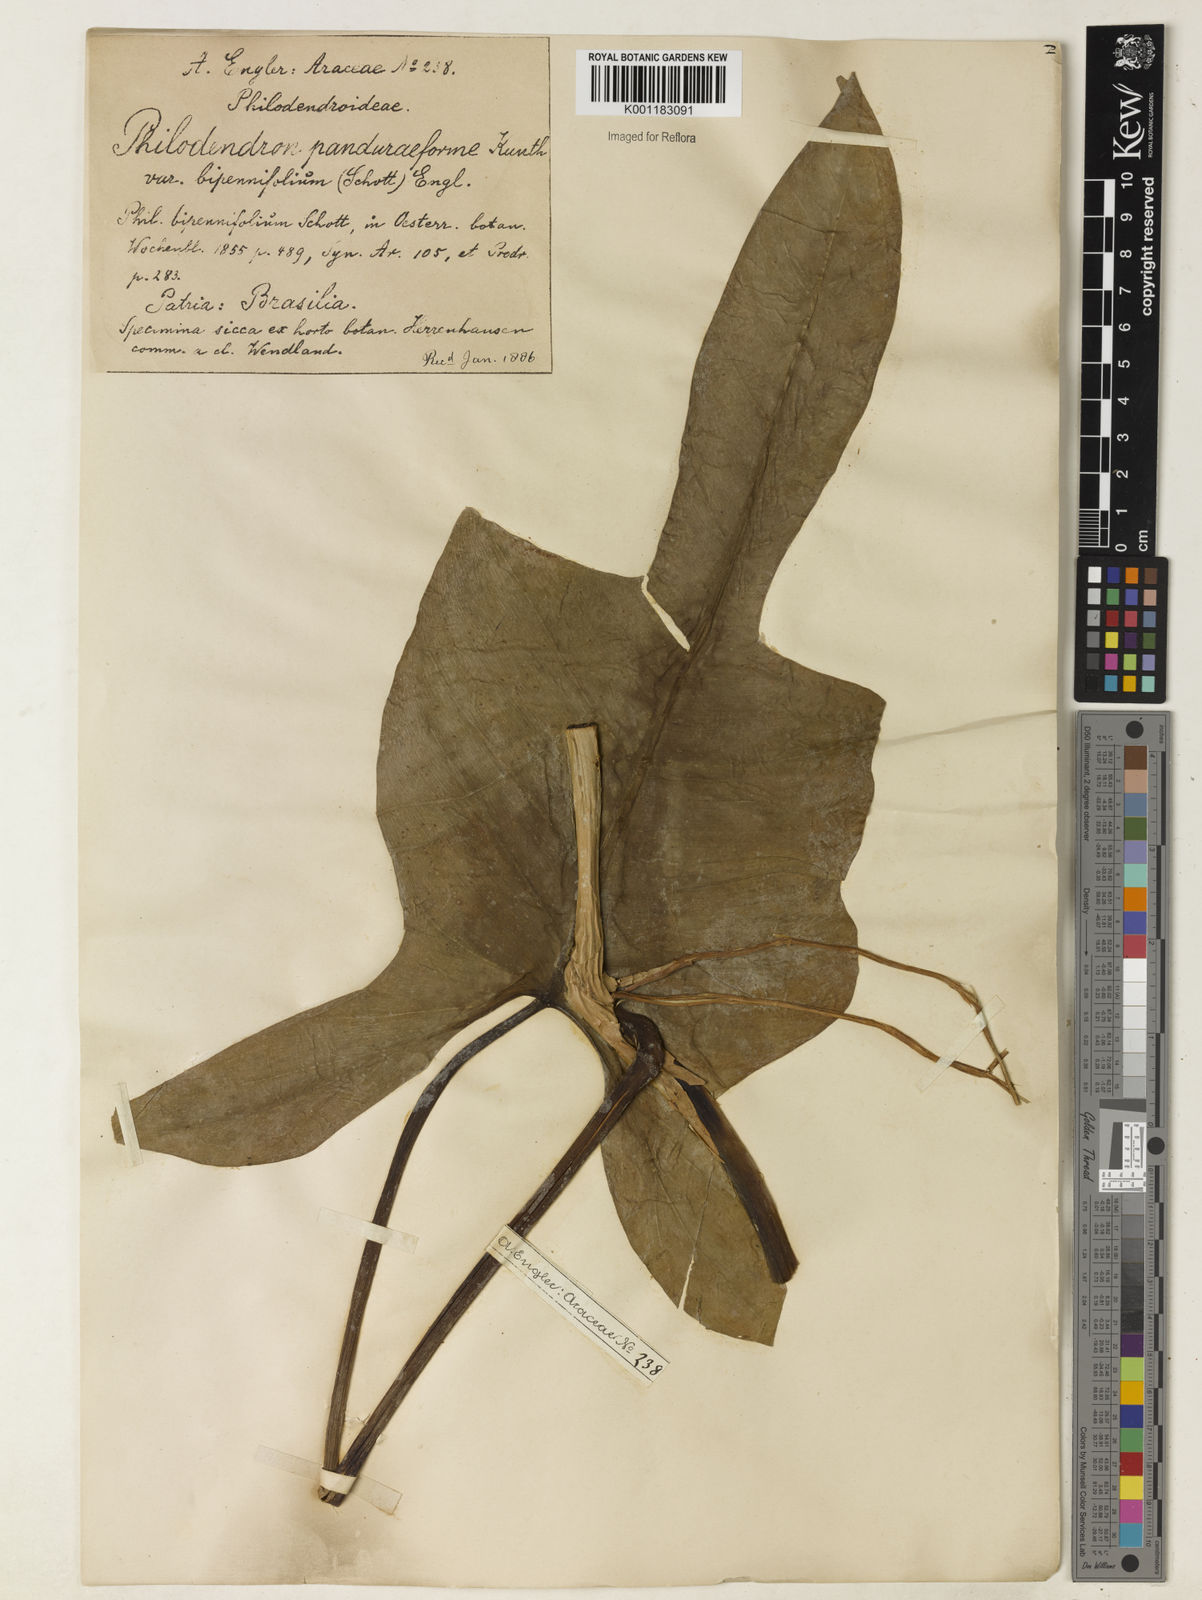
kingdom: Plantae
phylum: Tracheophyta
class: Liliopsida
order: Alismatales
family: Araceae
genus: Philodendron
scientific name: Philodendron bipennifolium
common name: Fiddle-leaf philodendron
